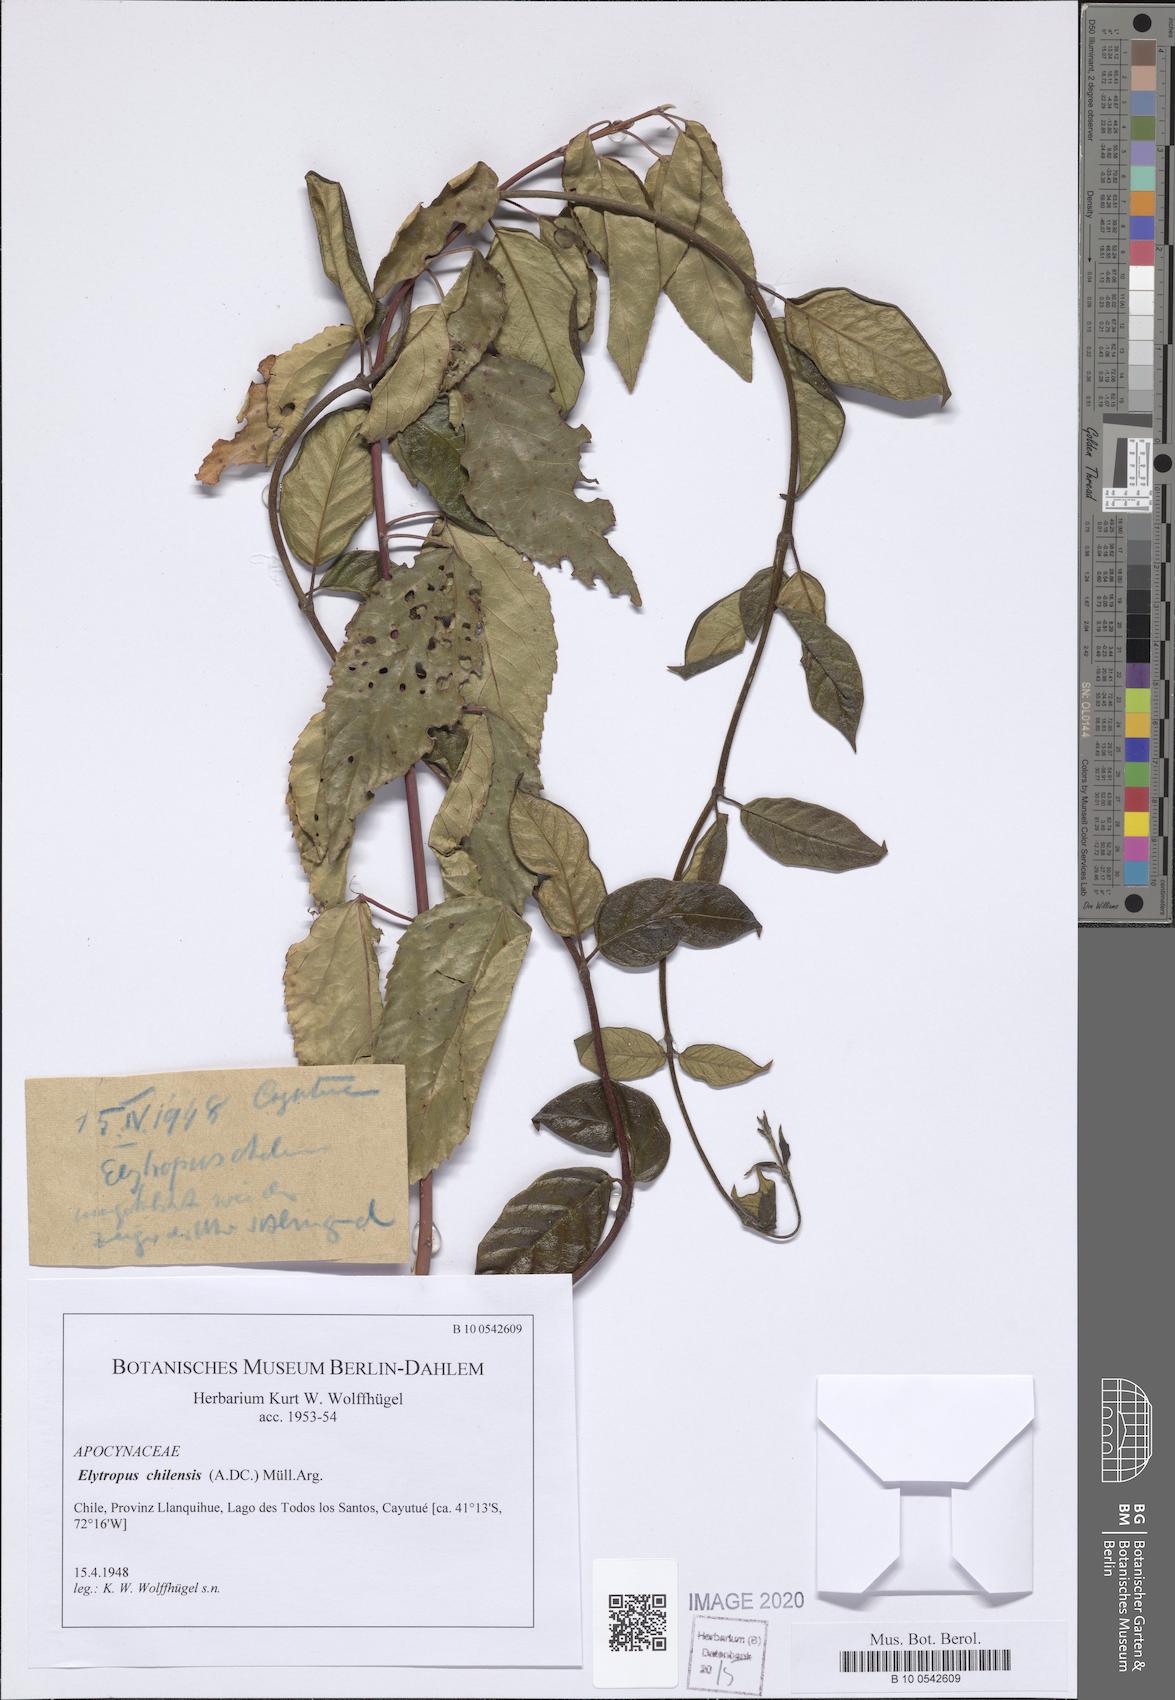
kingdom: Plantae
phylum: Tracheophyta
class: Magnoliopsida
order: Gentianales
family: Apocynaceae
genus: Mandevilla
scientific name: Mandevilla pubescens
